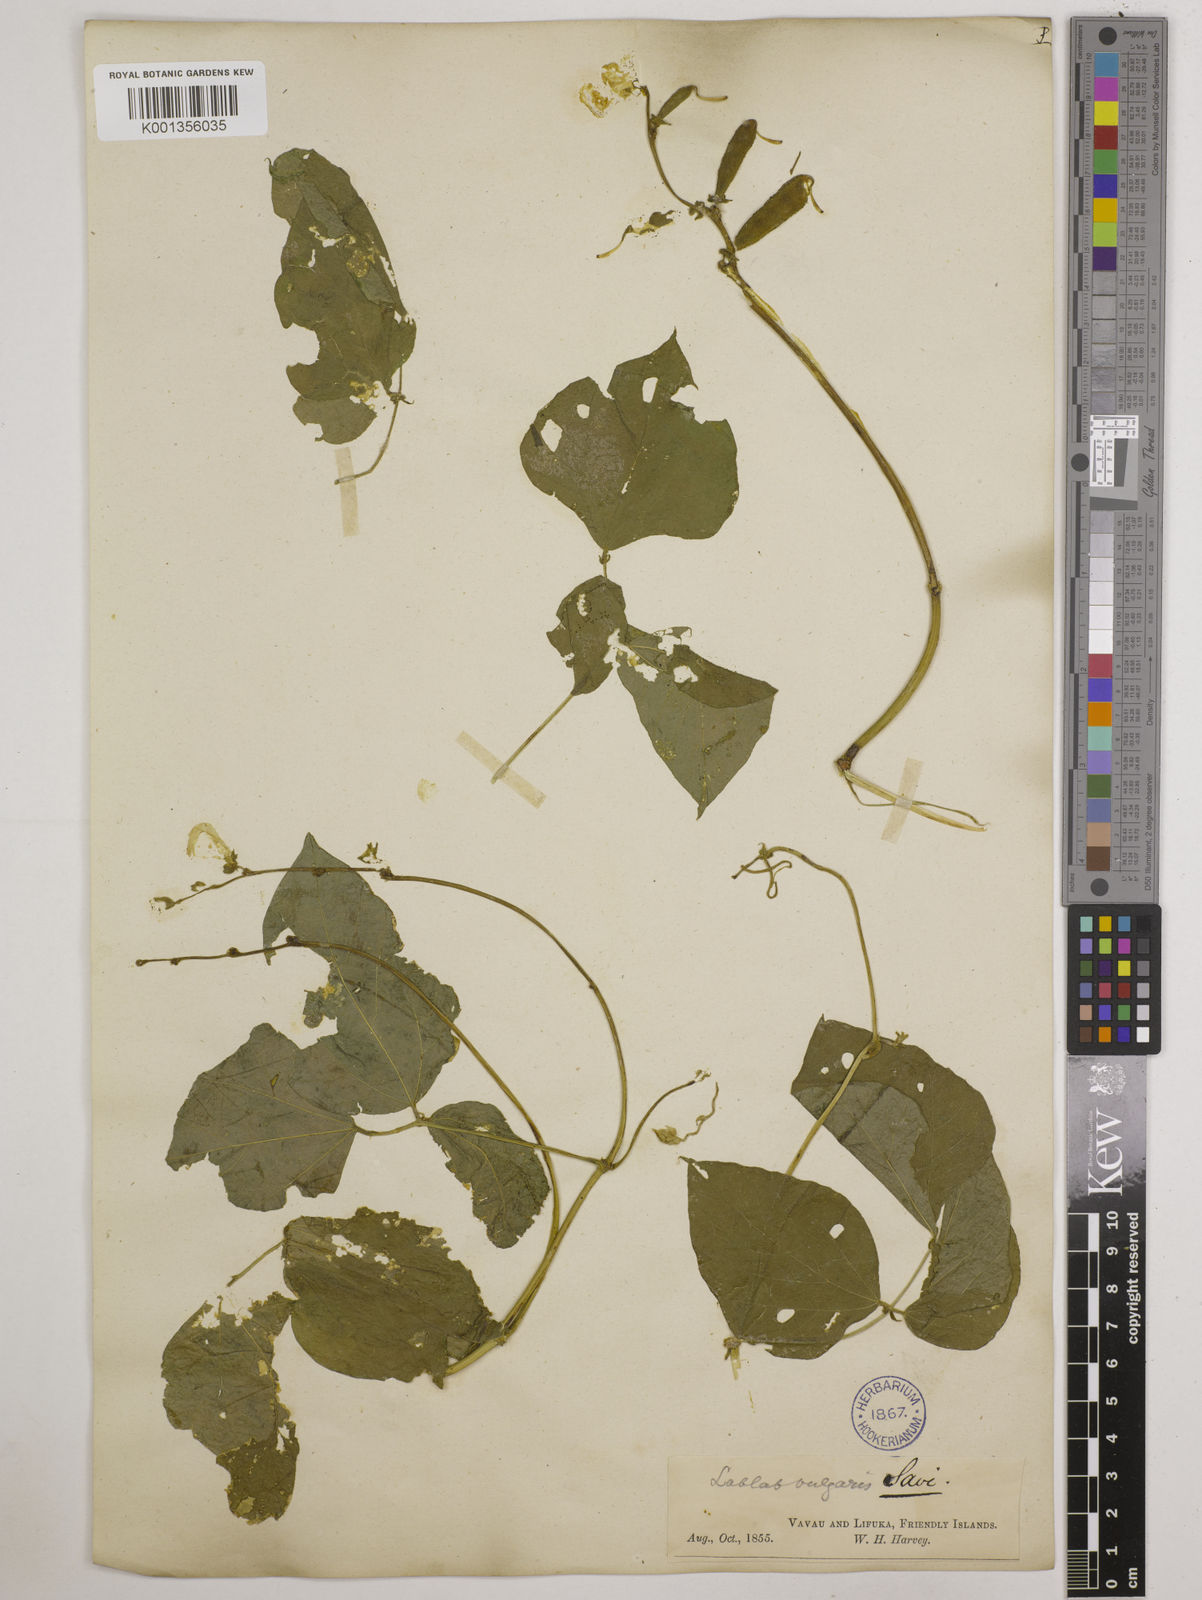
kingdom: Plantae
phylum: Tracheophyta
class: Magnoliopsida
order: Fabales
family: Fabaceae
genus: Lablab
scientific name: Lablab purpureus
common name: Lablab-bean
